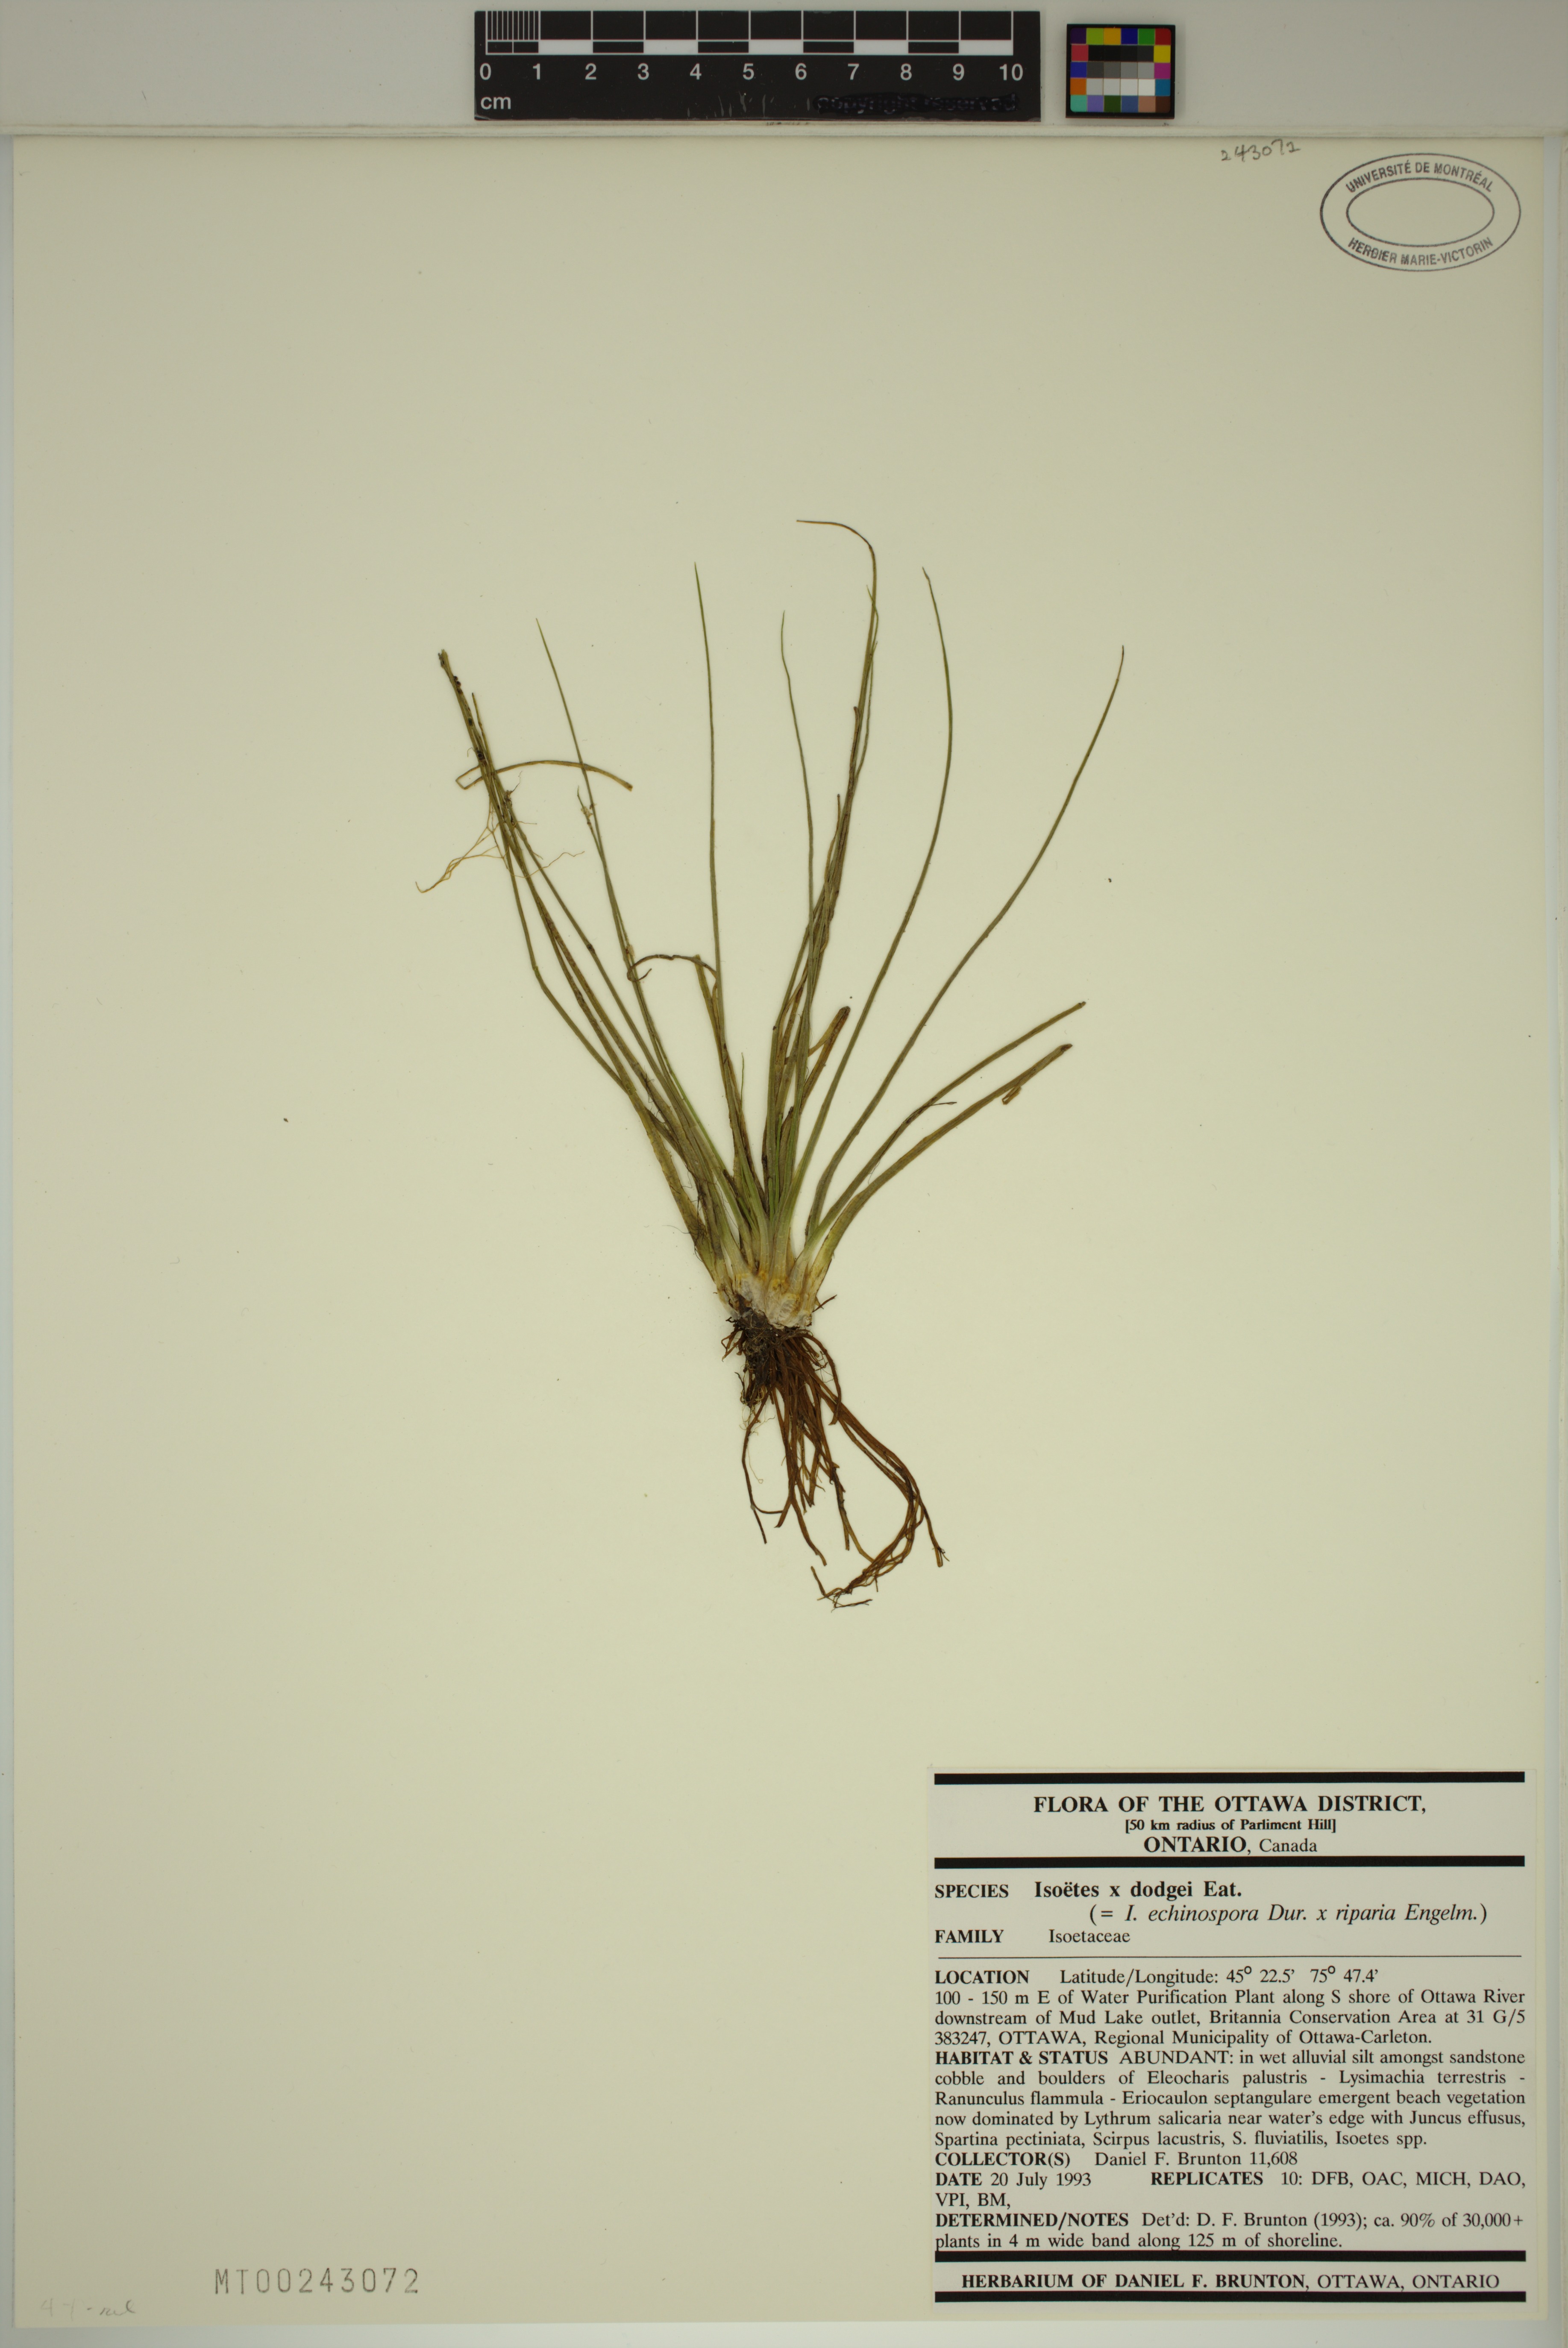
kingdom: Plantae
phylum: Tracheophyta
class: Lycopodiopsida
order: Isoetales
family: Isoetaceae
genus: Isoetes
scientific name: Isoetes robusta
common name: Robust quillwort
